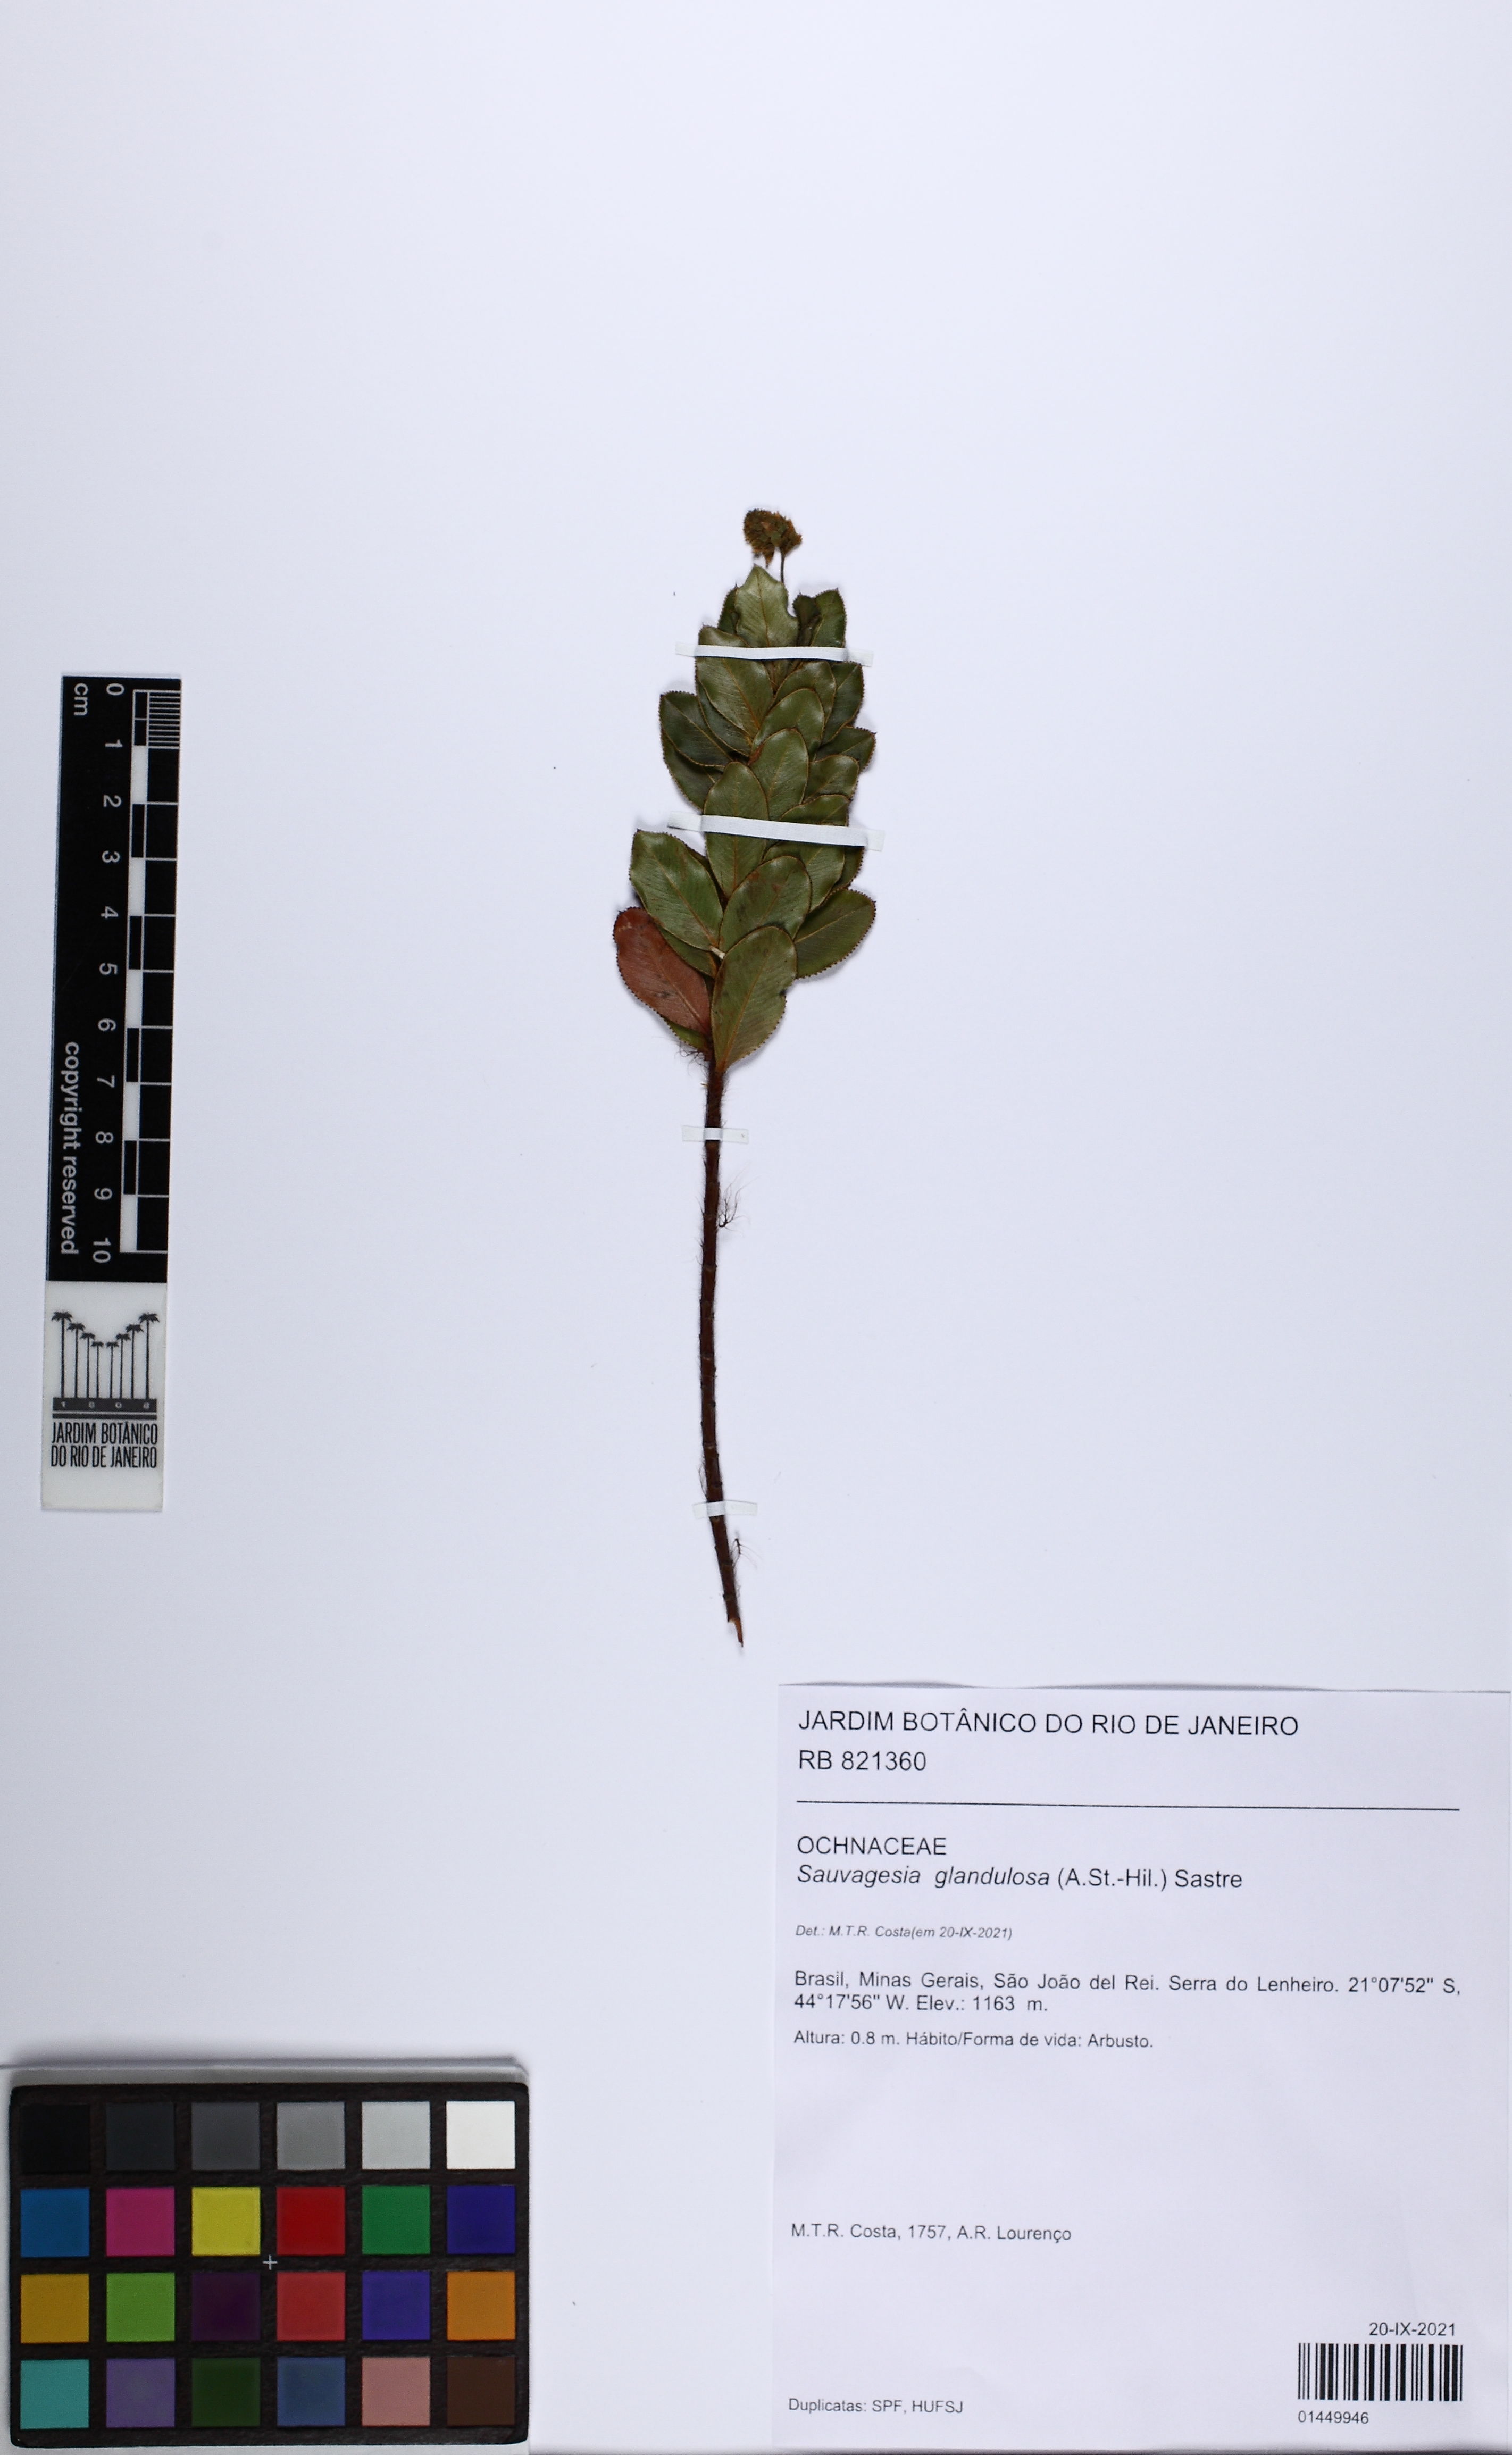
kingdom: Plantae
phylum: Tracheophyta
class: Magnoliopsida
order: Malpighiales
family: Ochnaceae
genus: Sauvagesia
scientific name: Sauvagesia glandulosa
